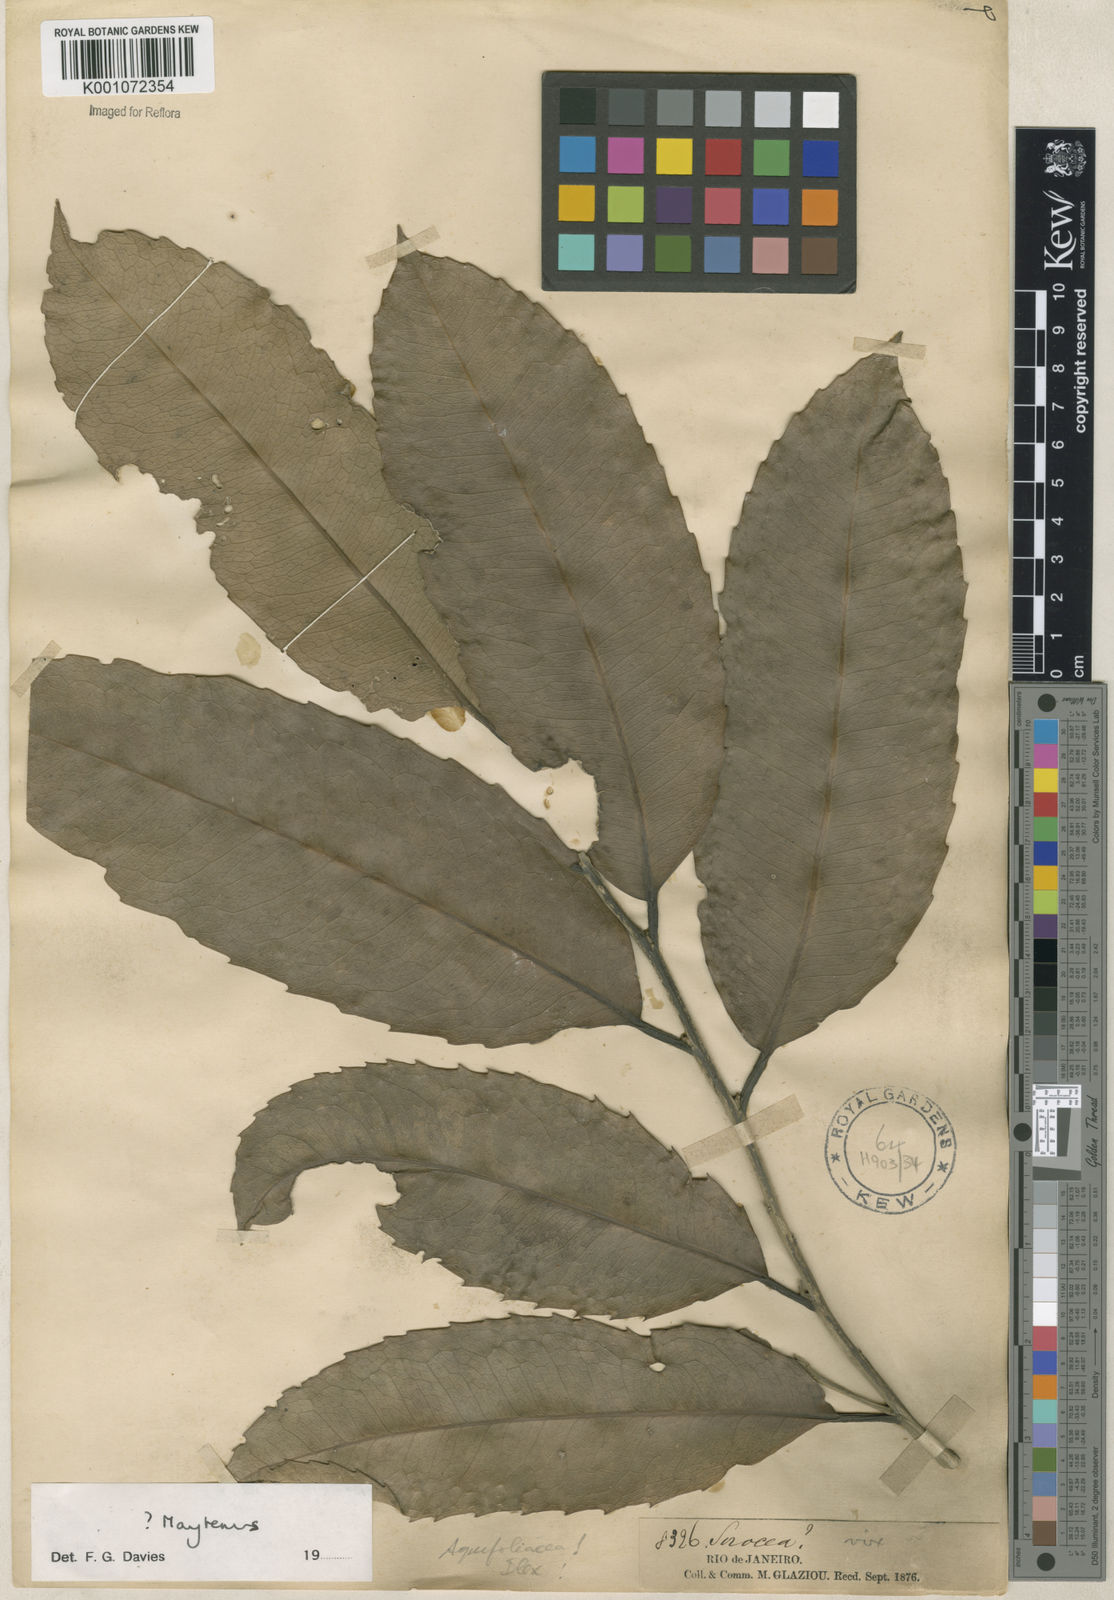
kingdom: Plantae
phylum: Tracheophyta
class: Magnoliopsida
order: Celastrales
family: Celastraceae
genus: Maytenus
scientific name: Maytenus
